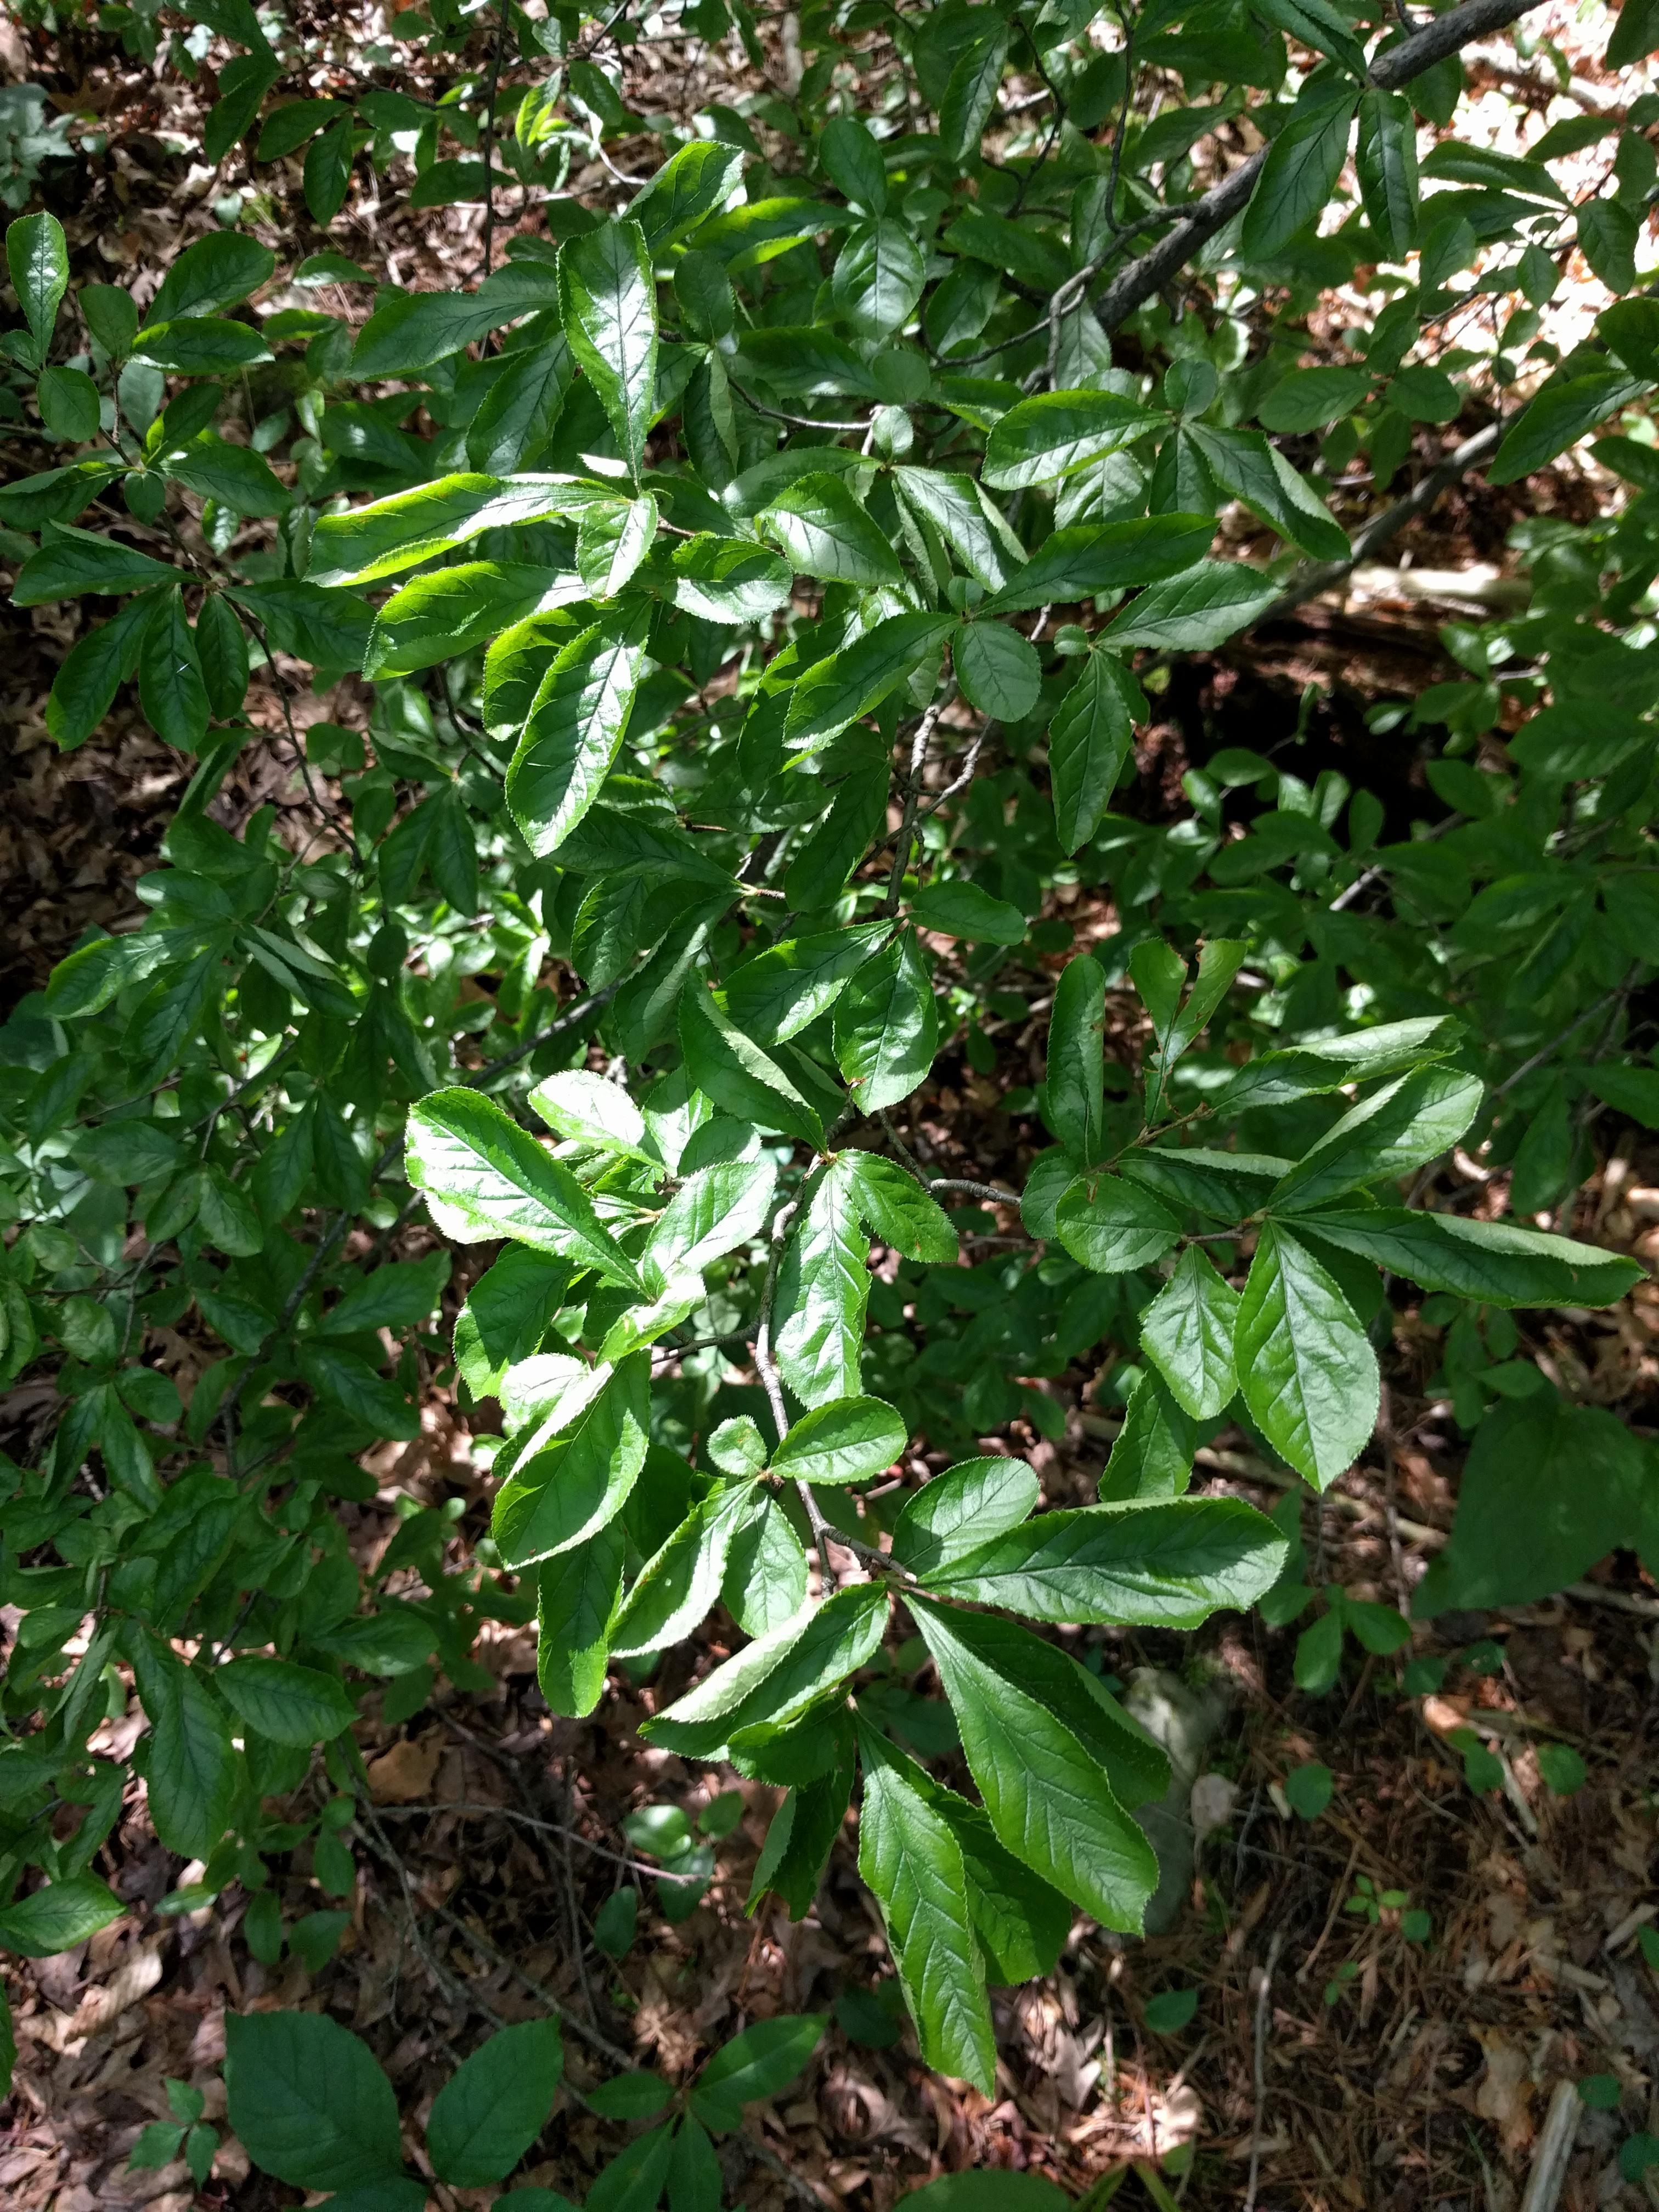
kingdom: Plantae
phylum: Tracheophyta
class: Magnoliopsida
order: Rosales
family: Rosaceae
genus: Aronia
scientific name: Aronia melanocarpa
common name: Black chokeberry
